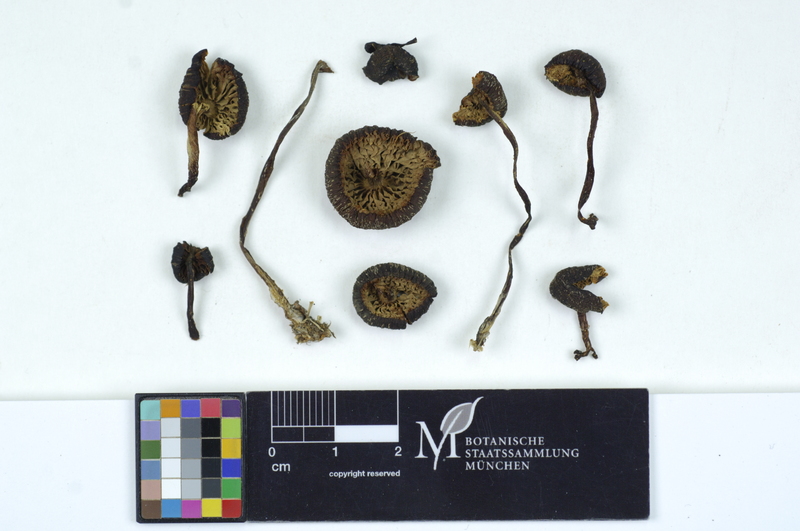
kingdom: Fungi
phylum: Basidiomycota
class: Agaricomycetes
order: Agaricales
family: Entolomataceae
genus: Entoloma
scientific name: Entoloma chalybeum
